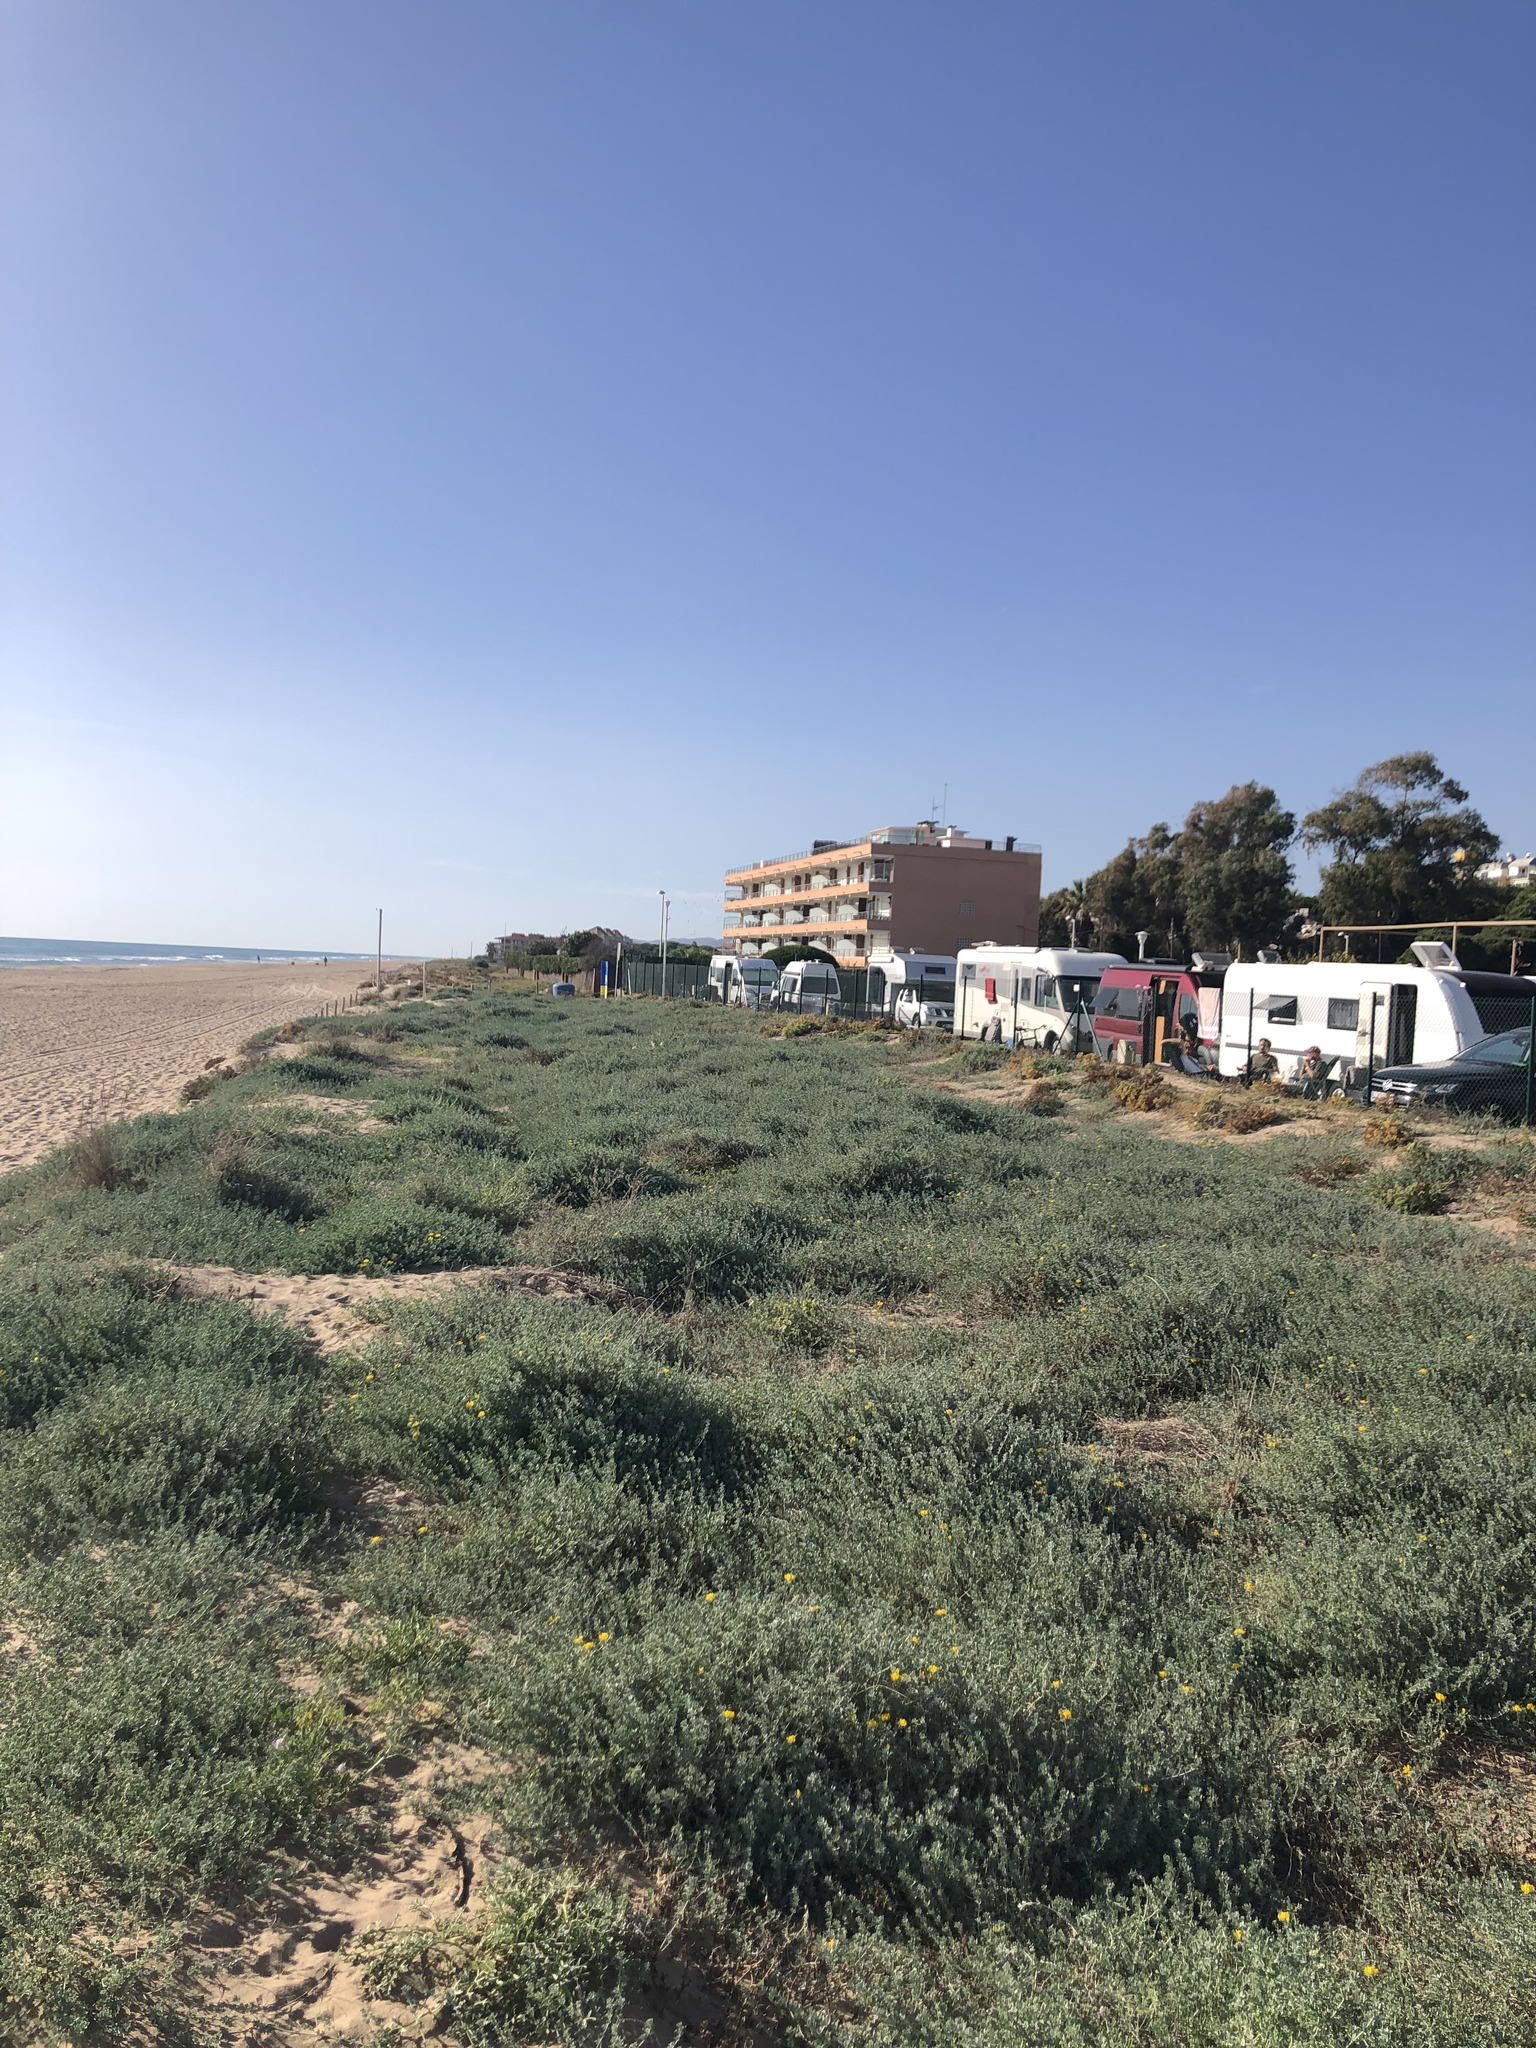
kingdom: Plantae
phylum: Tracheophyta
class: Magnoliopsida
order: Fabales
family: Fabaceae
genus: Lotus
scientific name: Lotus creticus
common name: Cretan bird's-foot trefoil
